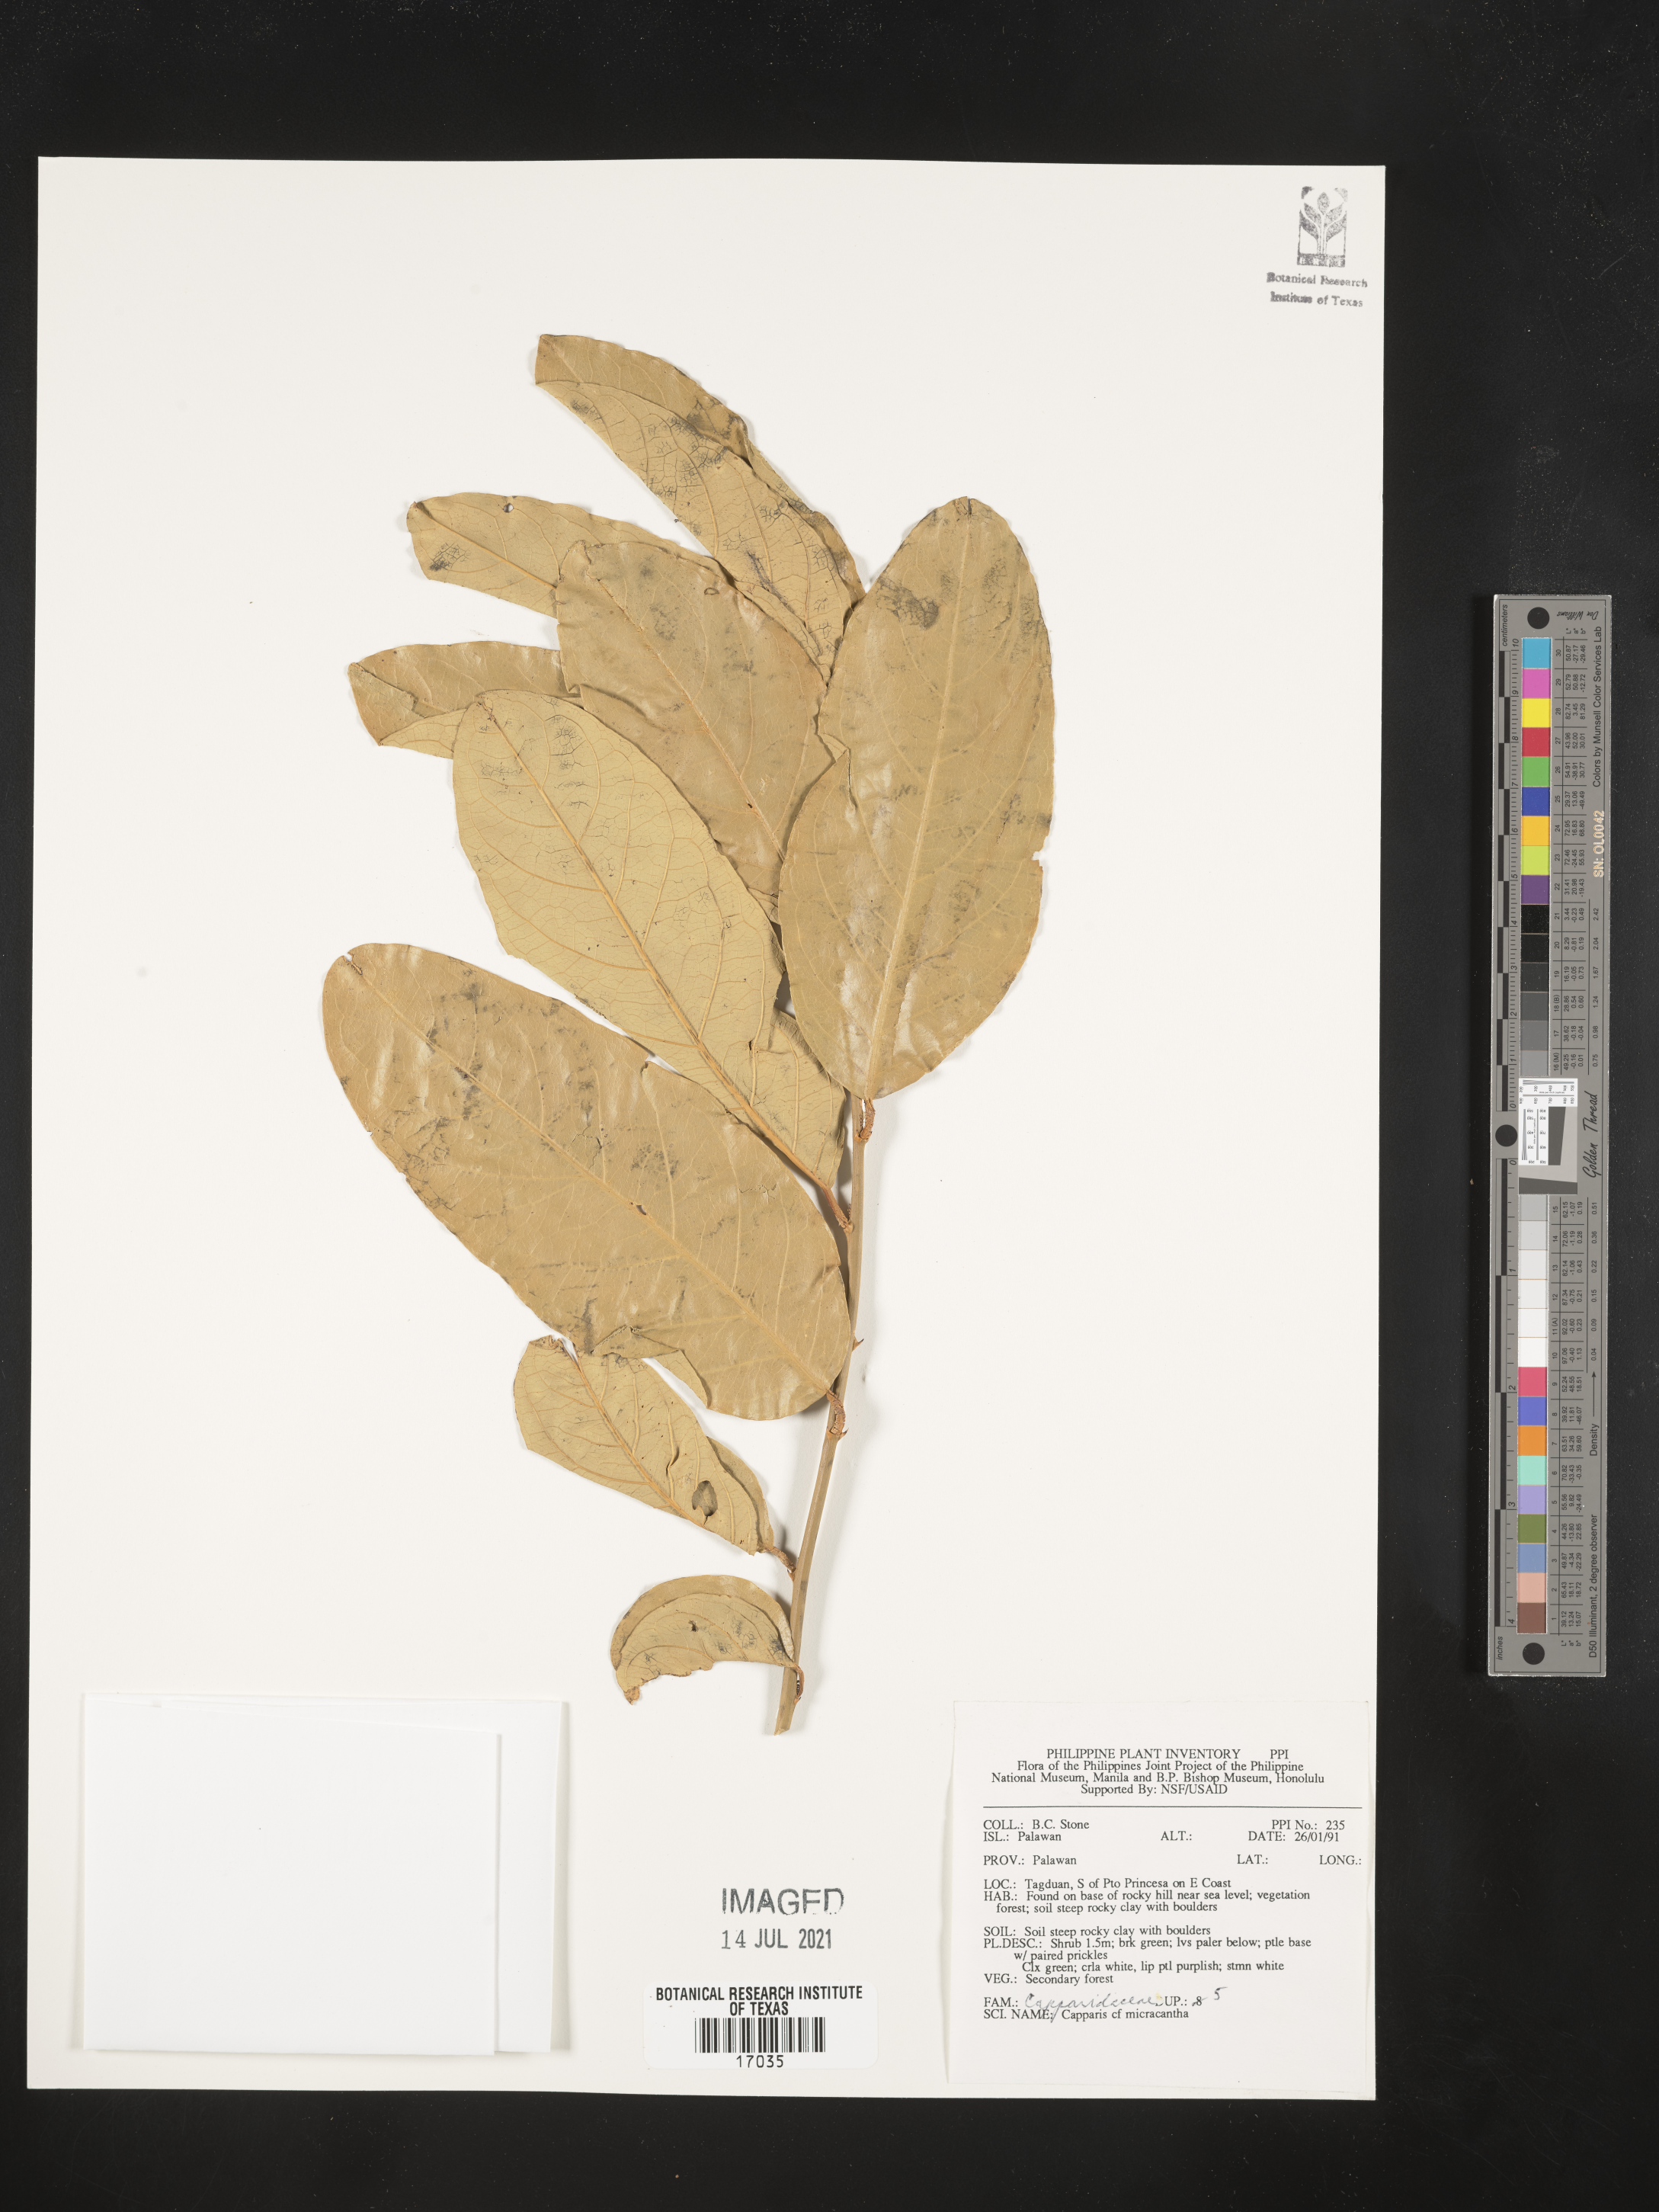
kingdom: Plantae
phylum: Tracheophyta
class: Magnoliopsida
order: Brassicales
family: Capparaceae
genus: Capparis
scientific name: Capparis micracantha
